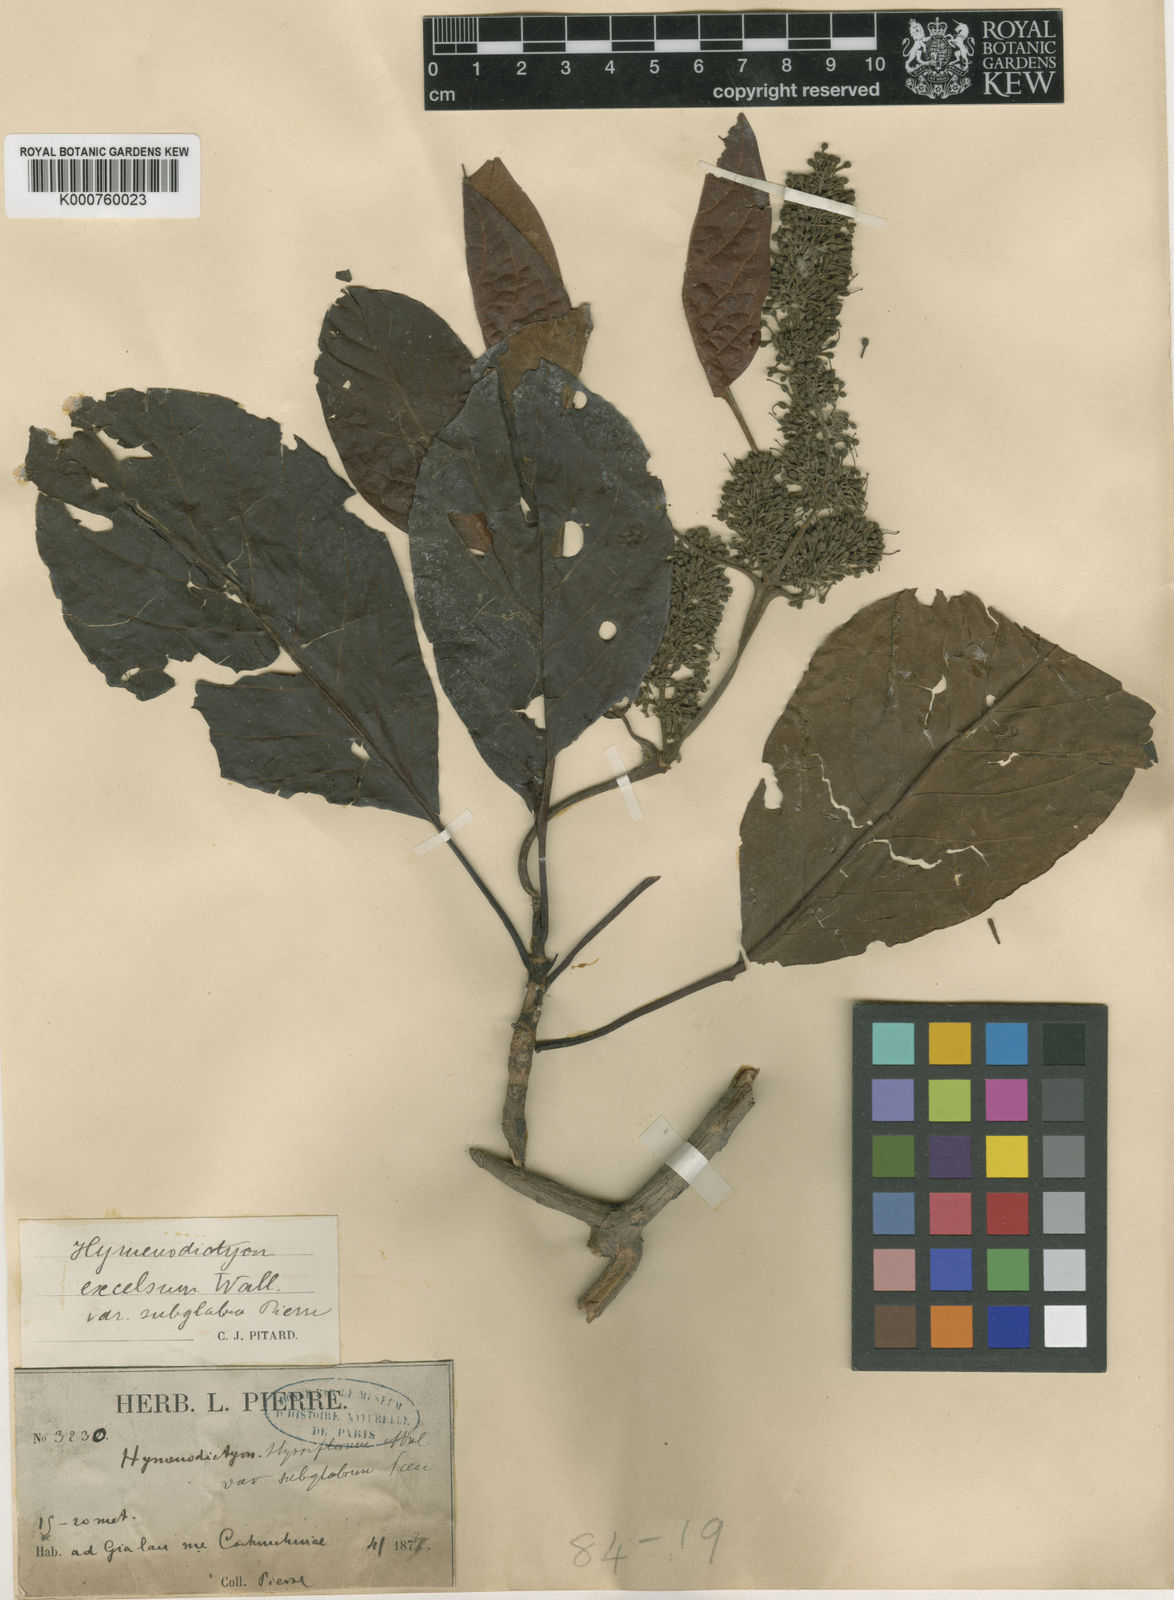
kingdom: Plantae
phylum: Tracheophyta
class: Magnoliopsida
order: Gentianales
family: Rubiaceae
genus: Hymenodictyon
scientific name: Hymenodictyon orixense
